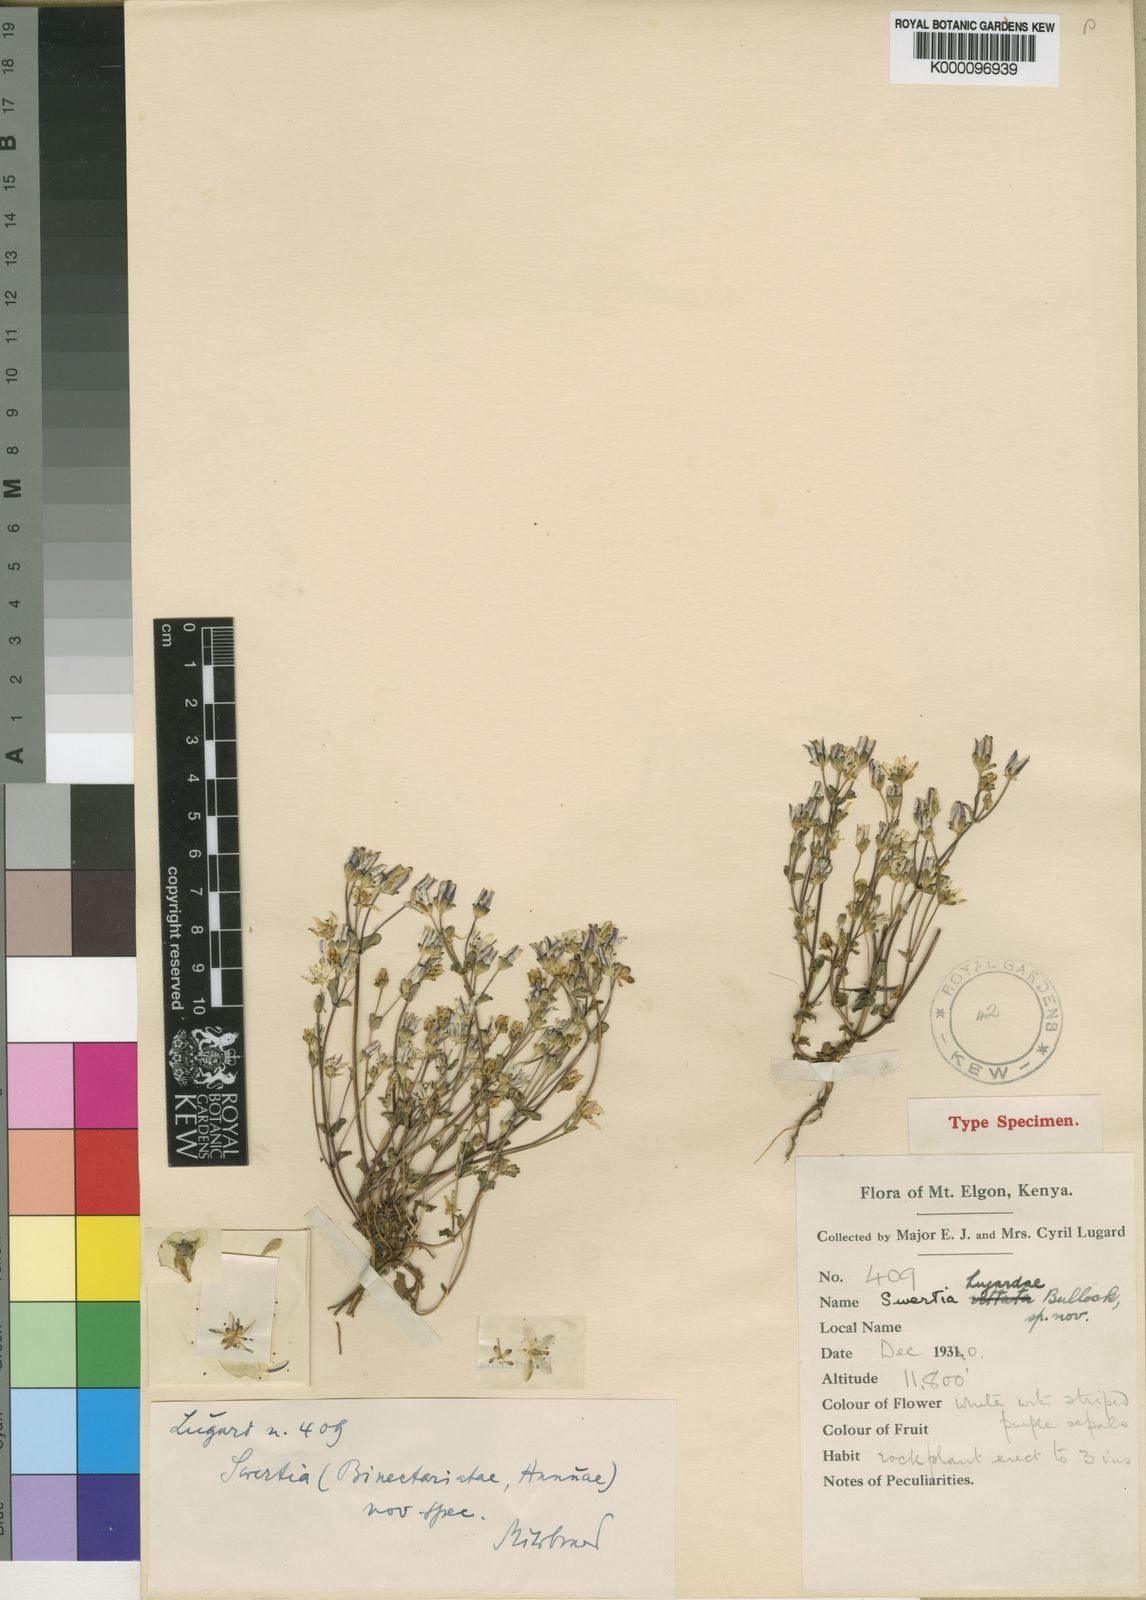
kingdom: Plantae
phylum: Tracheophyta
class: Magnoliopsida
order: Gentianales
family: Gentianaceae
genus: Swertia
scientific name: Swertia lugardae
